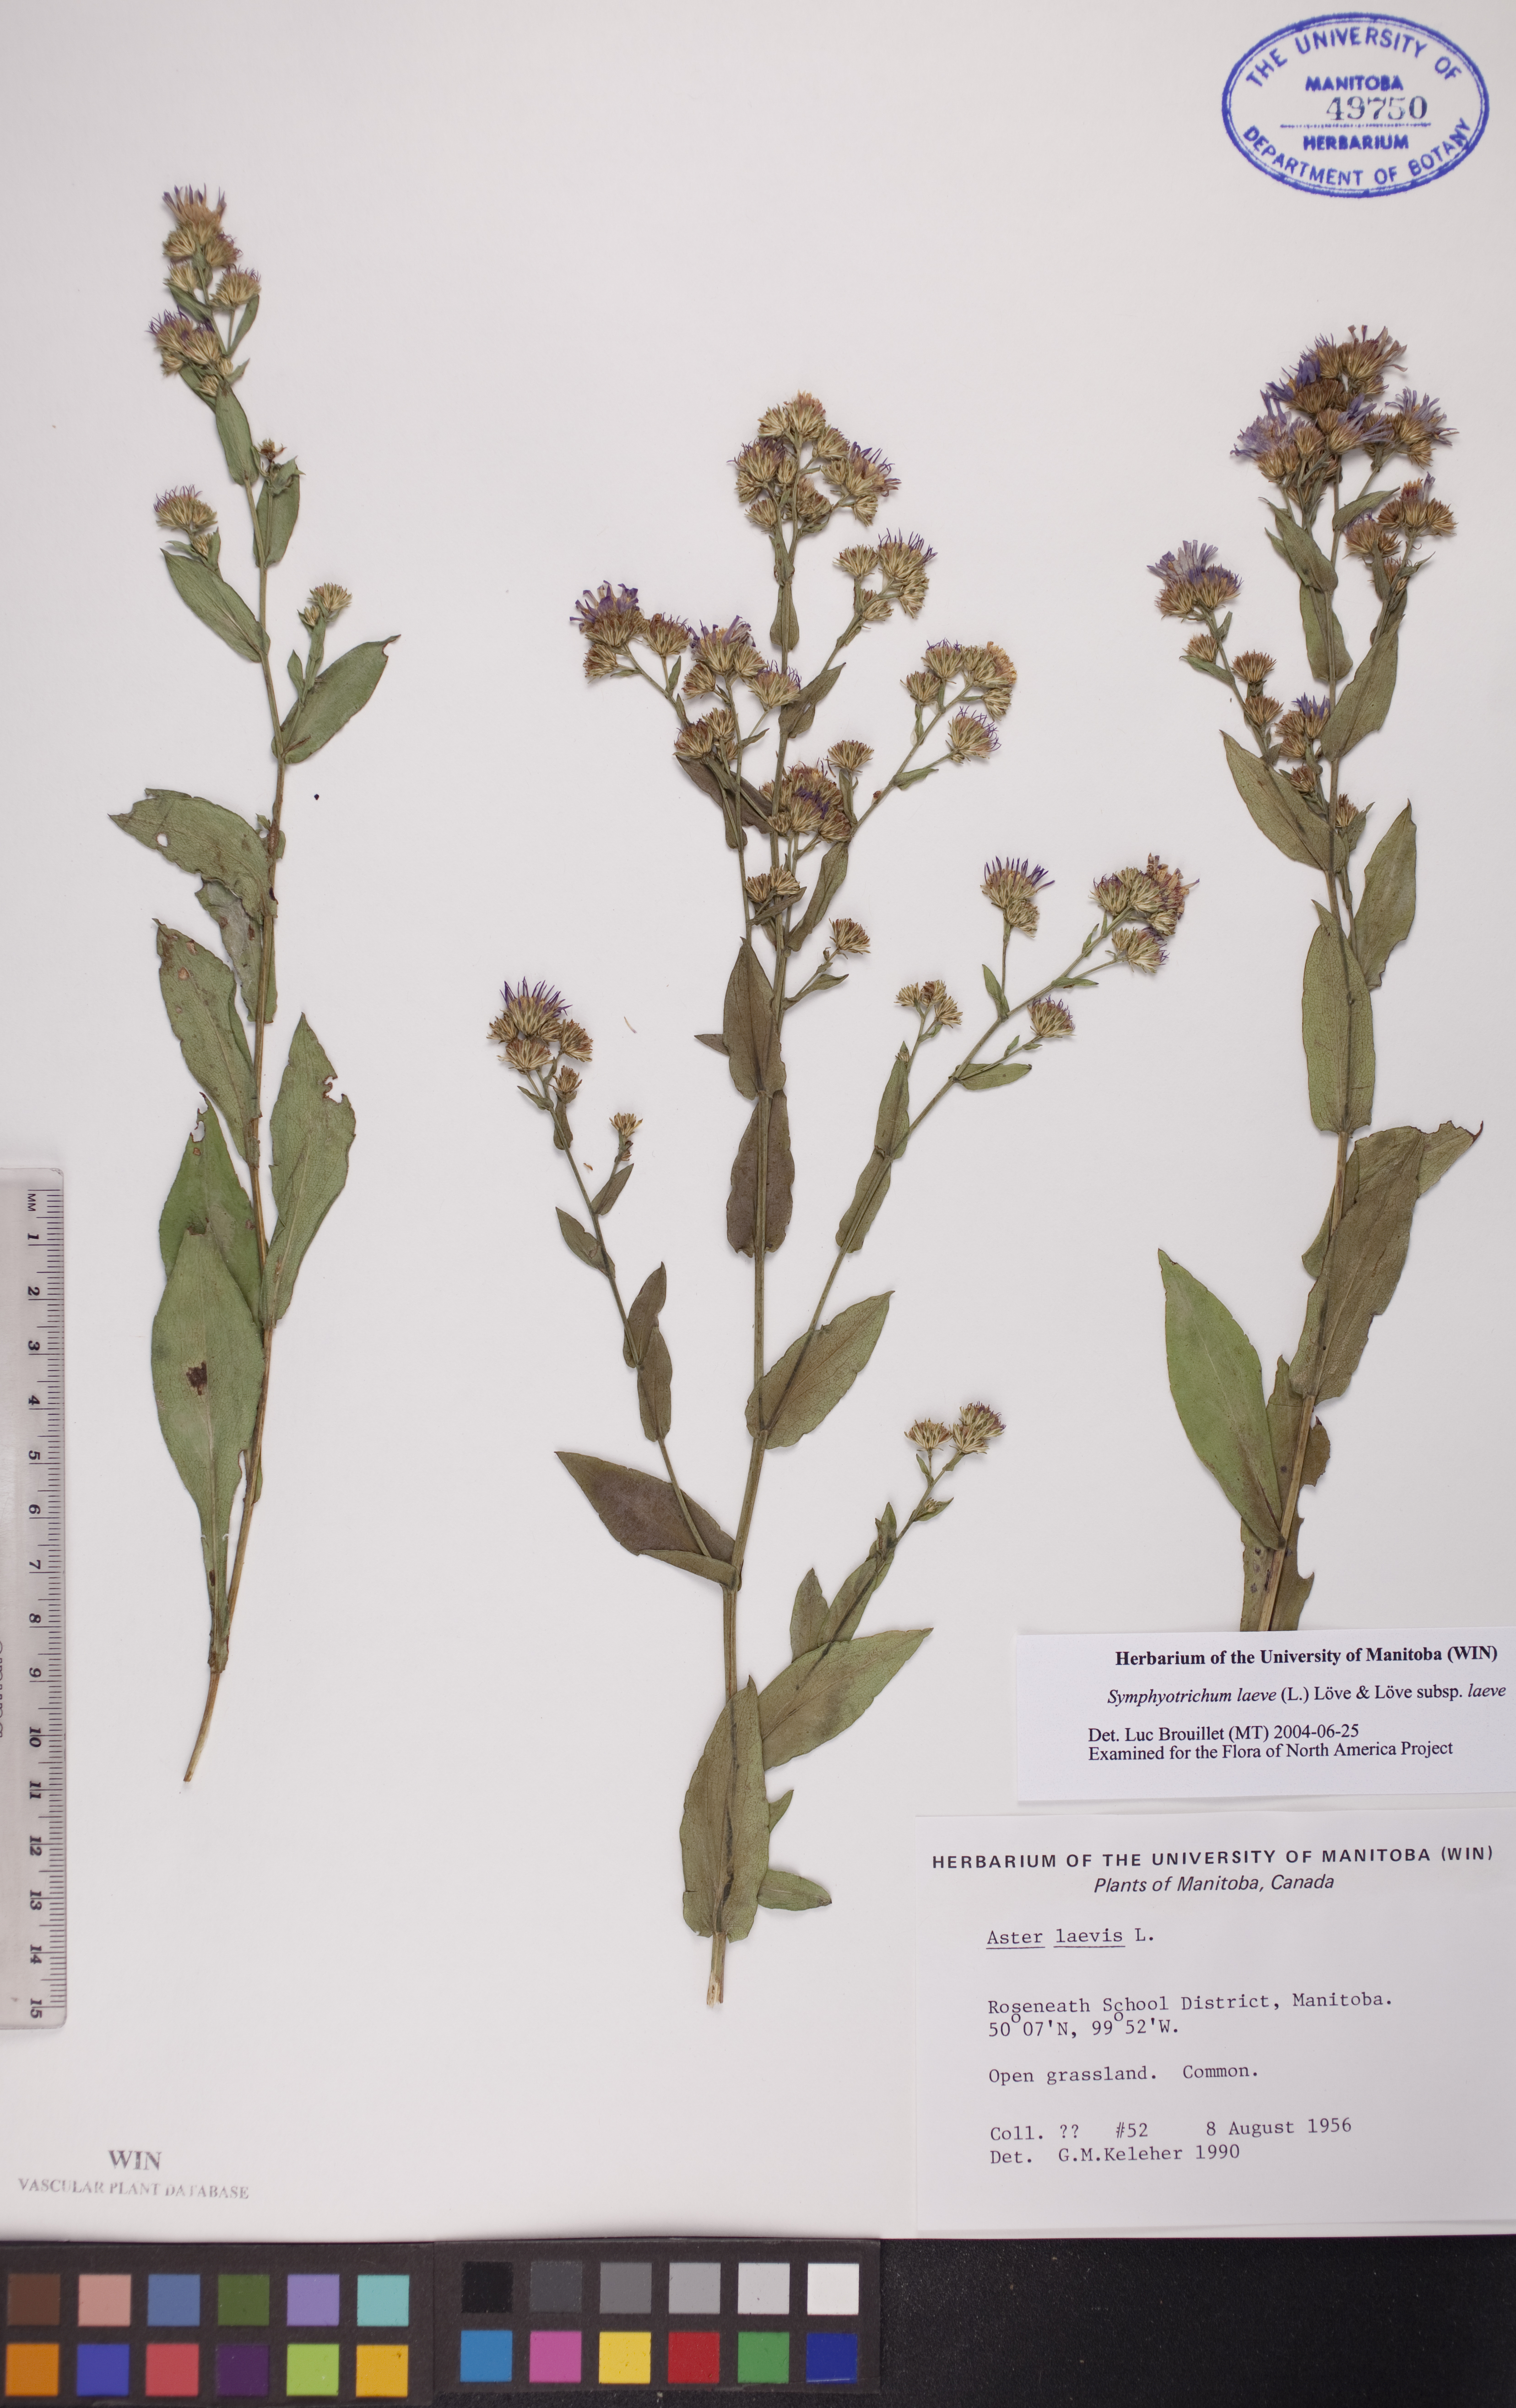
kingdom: Plantae
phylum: Tracheophyta
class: Magnoliopsida
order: Asterales
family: Asteraceae
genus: Symphyotrichum
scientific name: Symphyotrichum laeve
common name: Glaucous aster
